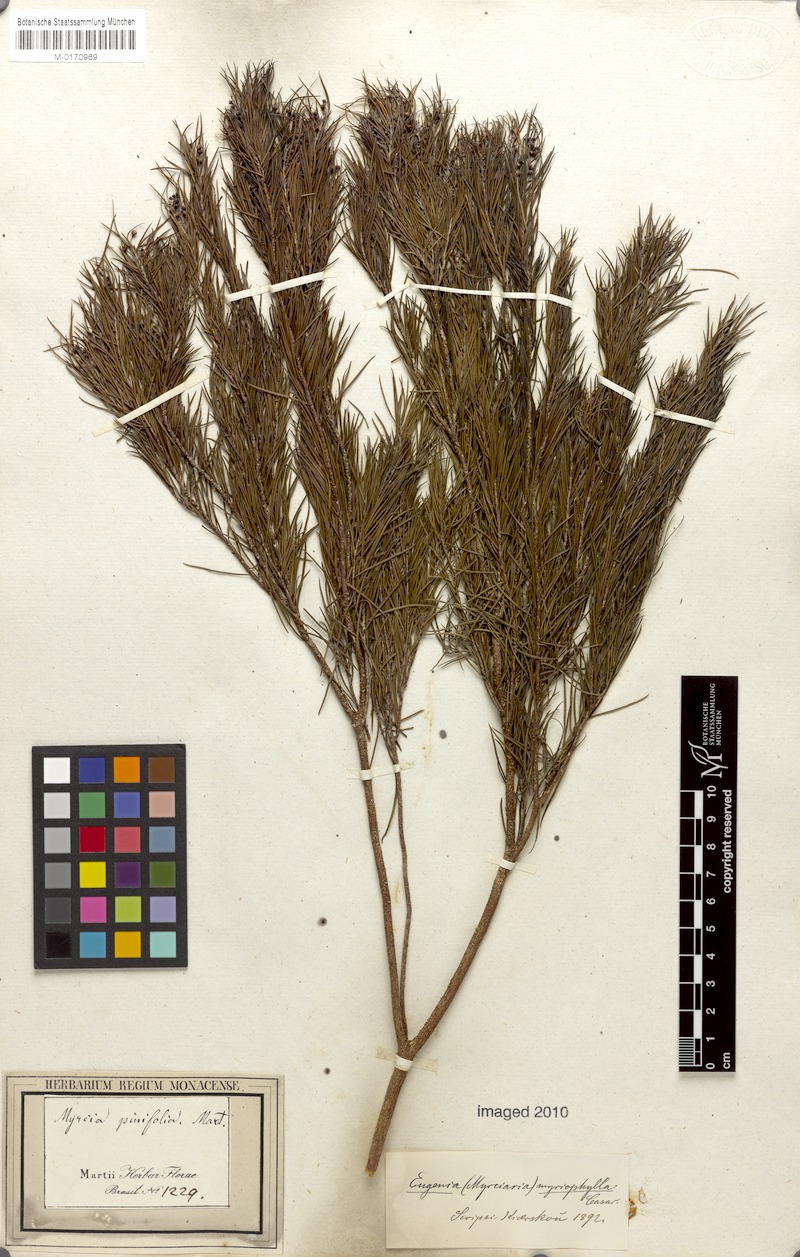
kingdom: Plantae
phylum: Tracheophyta
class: Magnoliopsida
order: Myrtales
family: Myrtaceae
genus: Blepharocalyx
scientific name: Blepharocalyx myriophyllus
